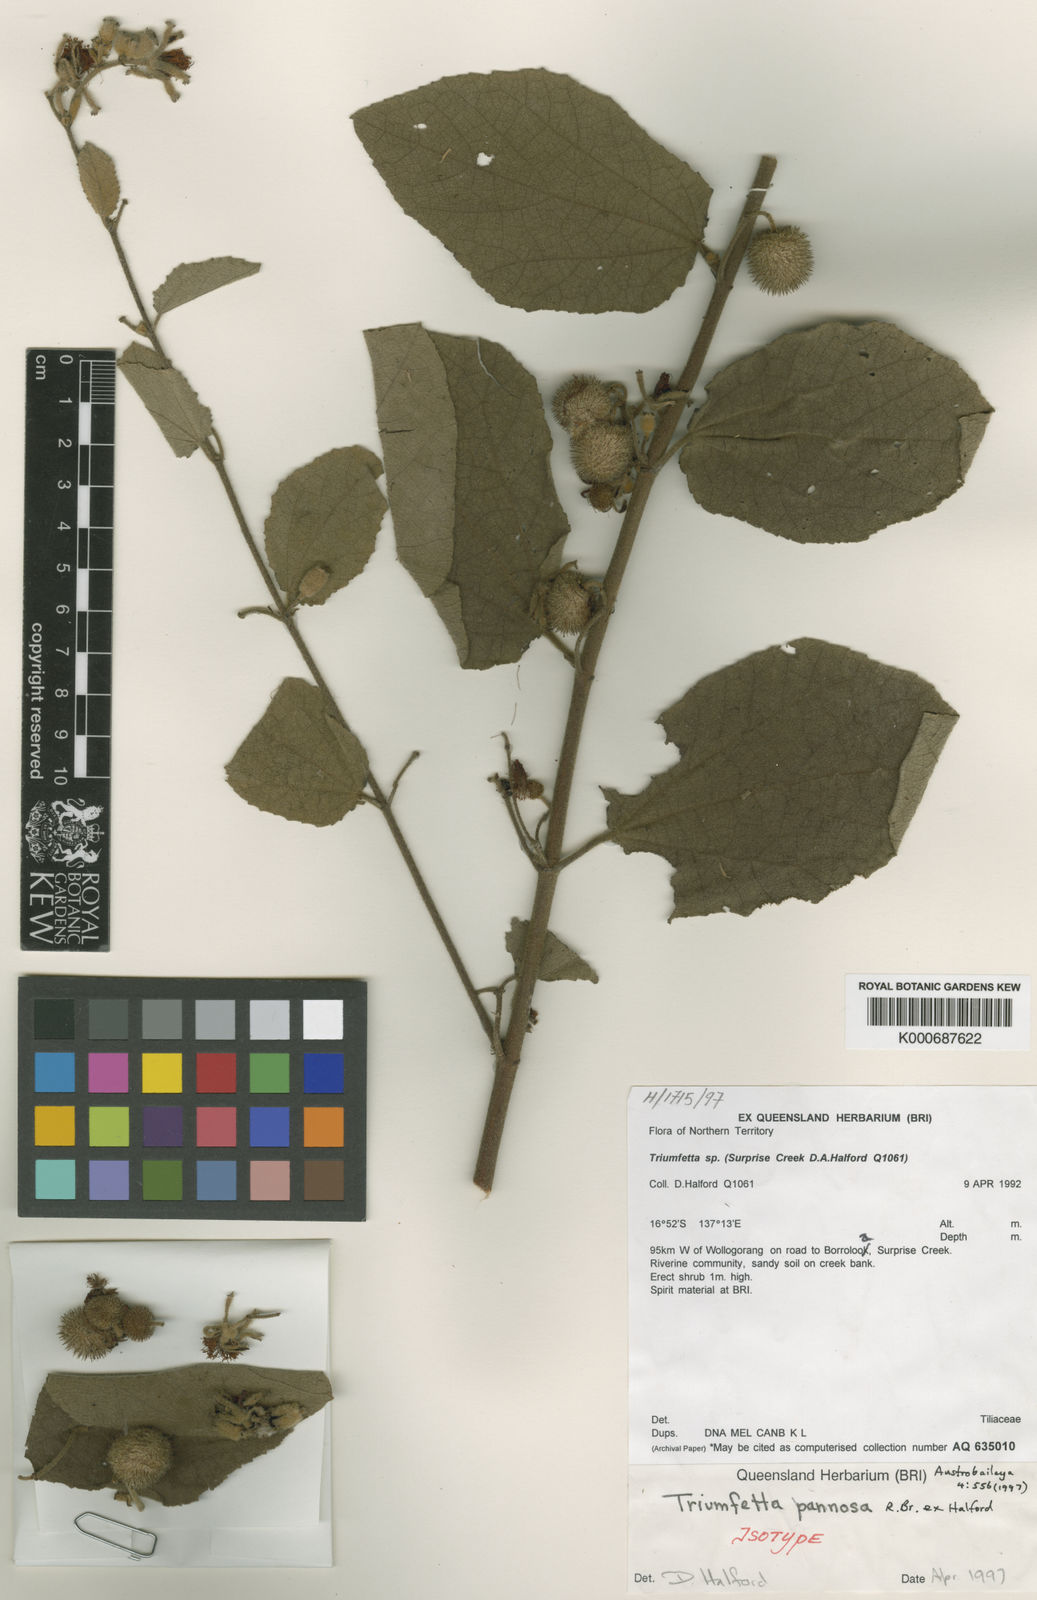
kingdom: Plantae
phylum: Tracheophyta
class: Magnoliopsida
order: Malvales
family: Malvaceae
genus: Triumfetta
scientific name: Triumfetta pannosa
